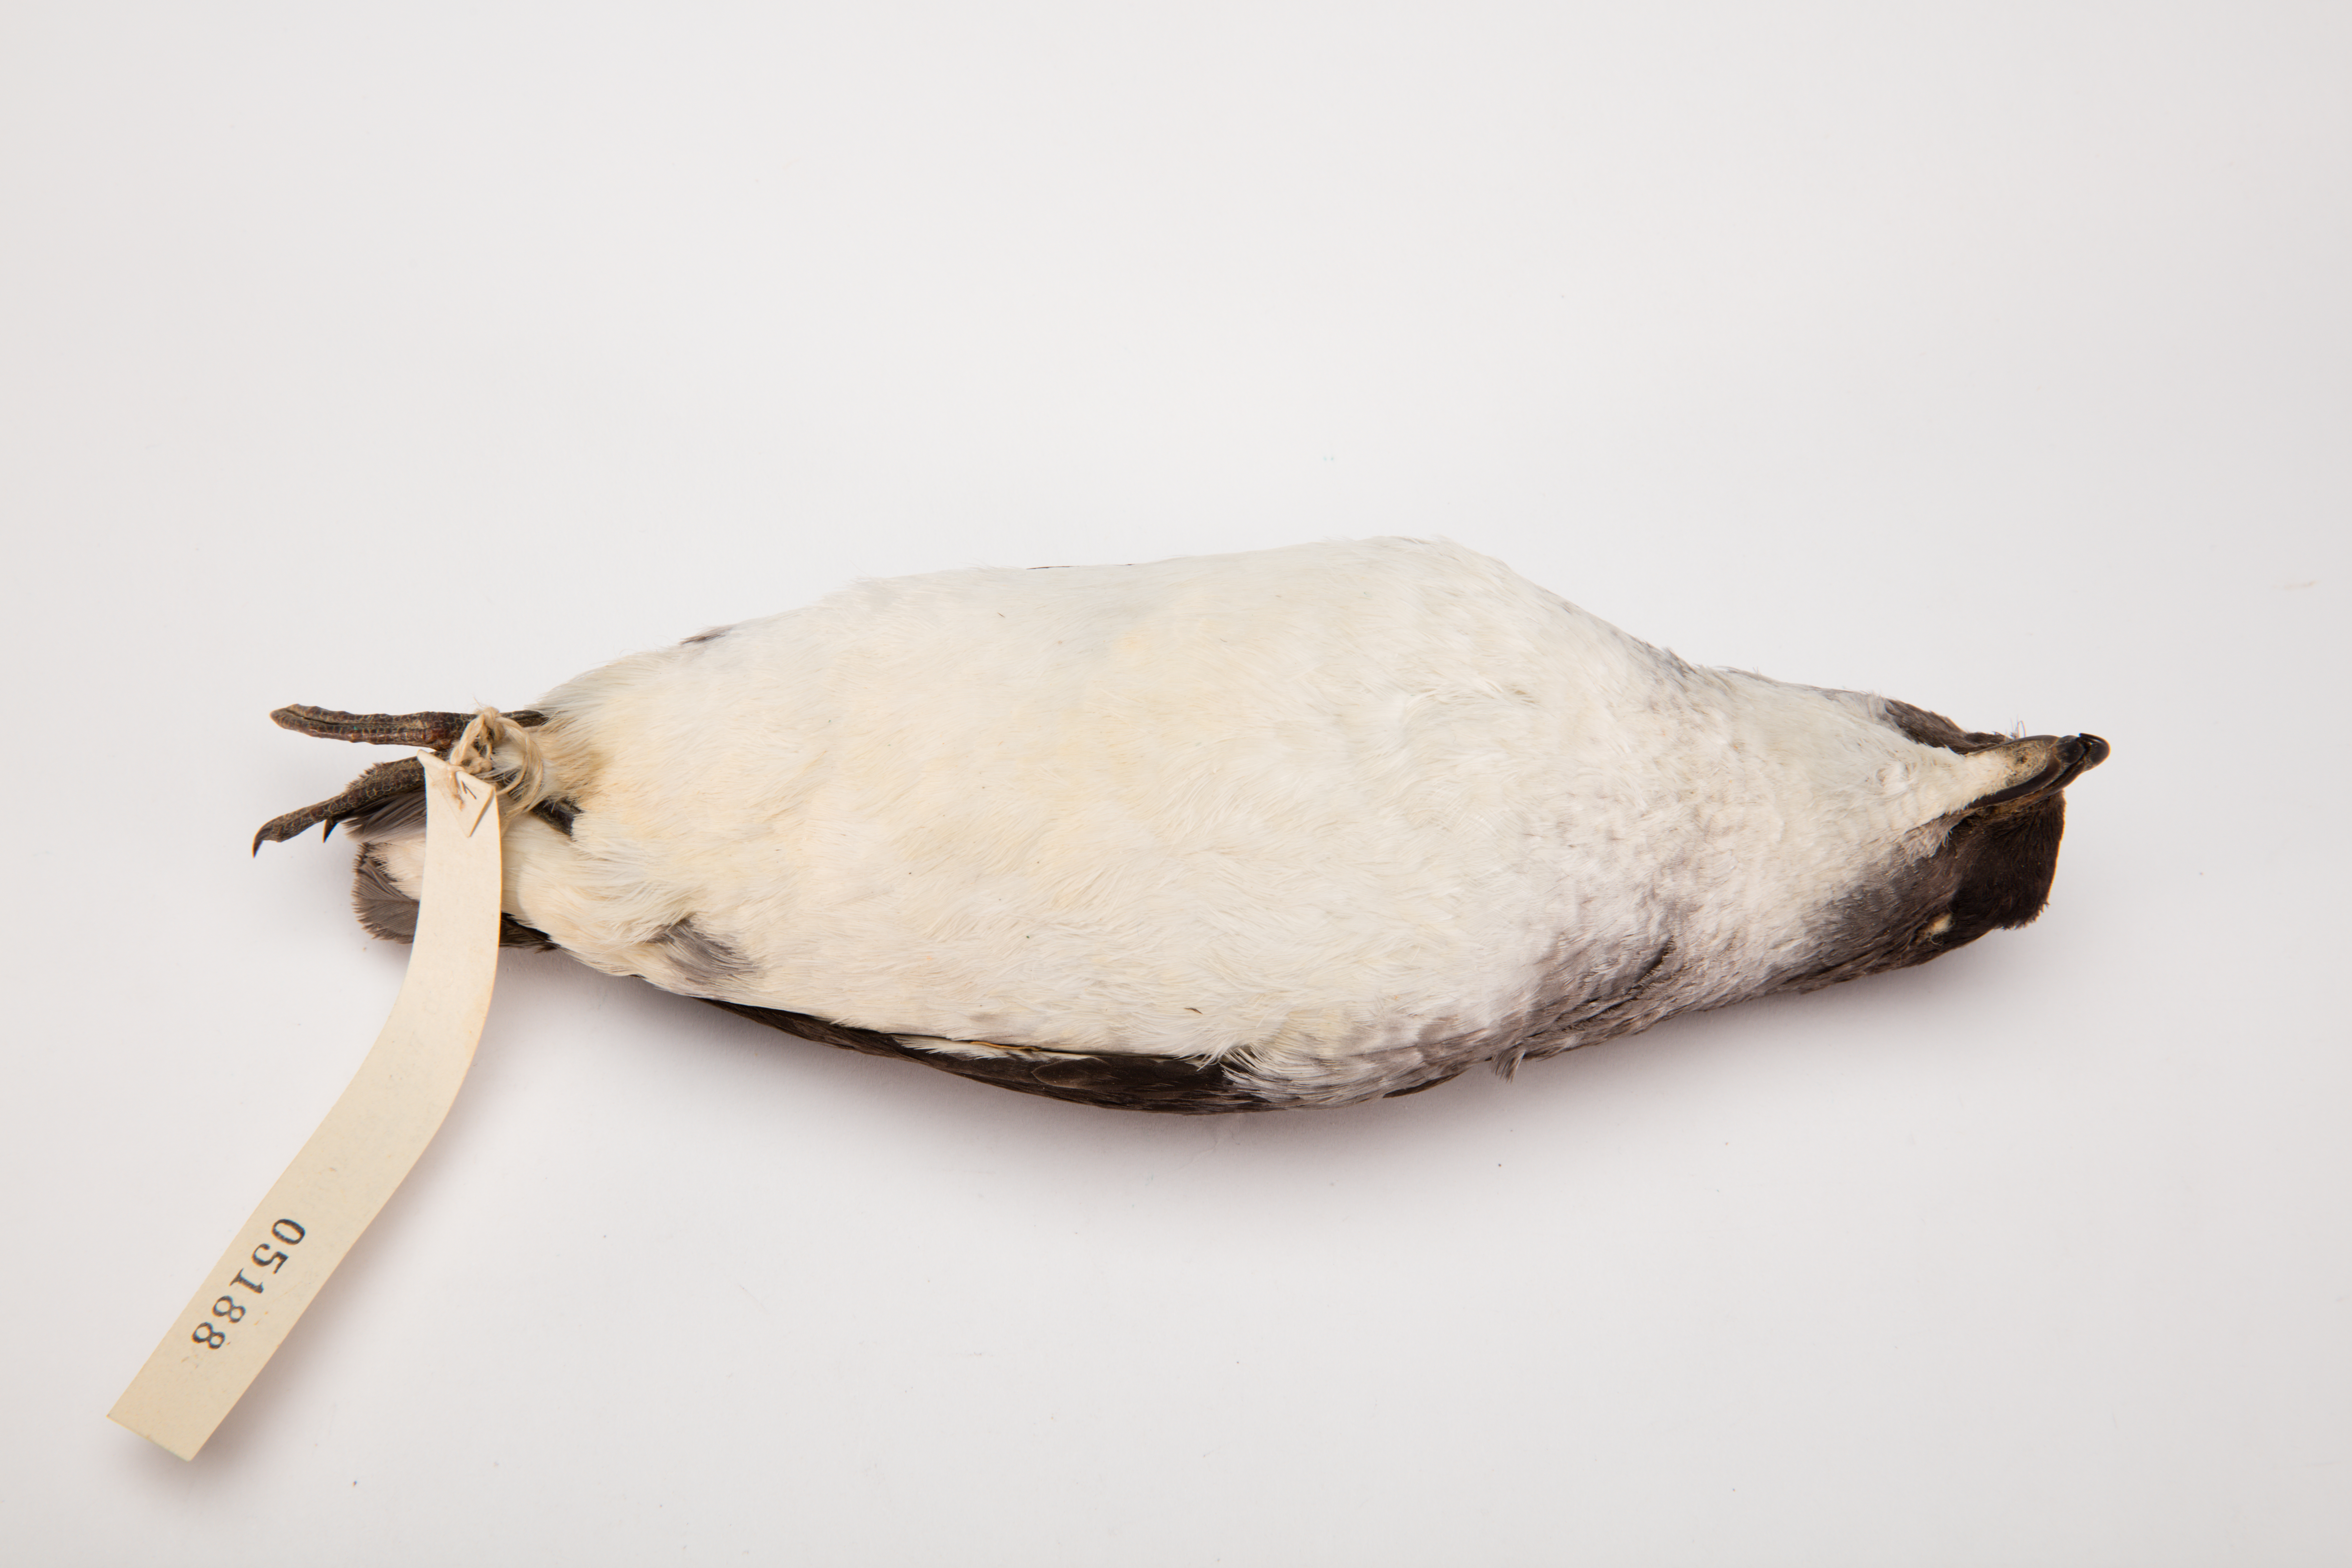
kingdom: Animalia
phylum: Chordata
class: Aves
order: Procellariiformes
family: Pelecanoididae
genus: Pelecanoides
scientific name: Pelecanoides urinatrix
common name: Common diving-petrel
